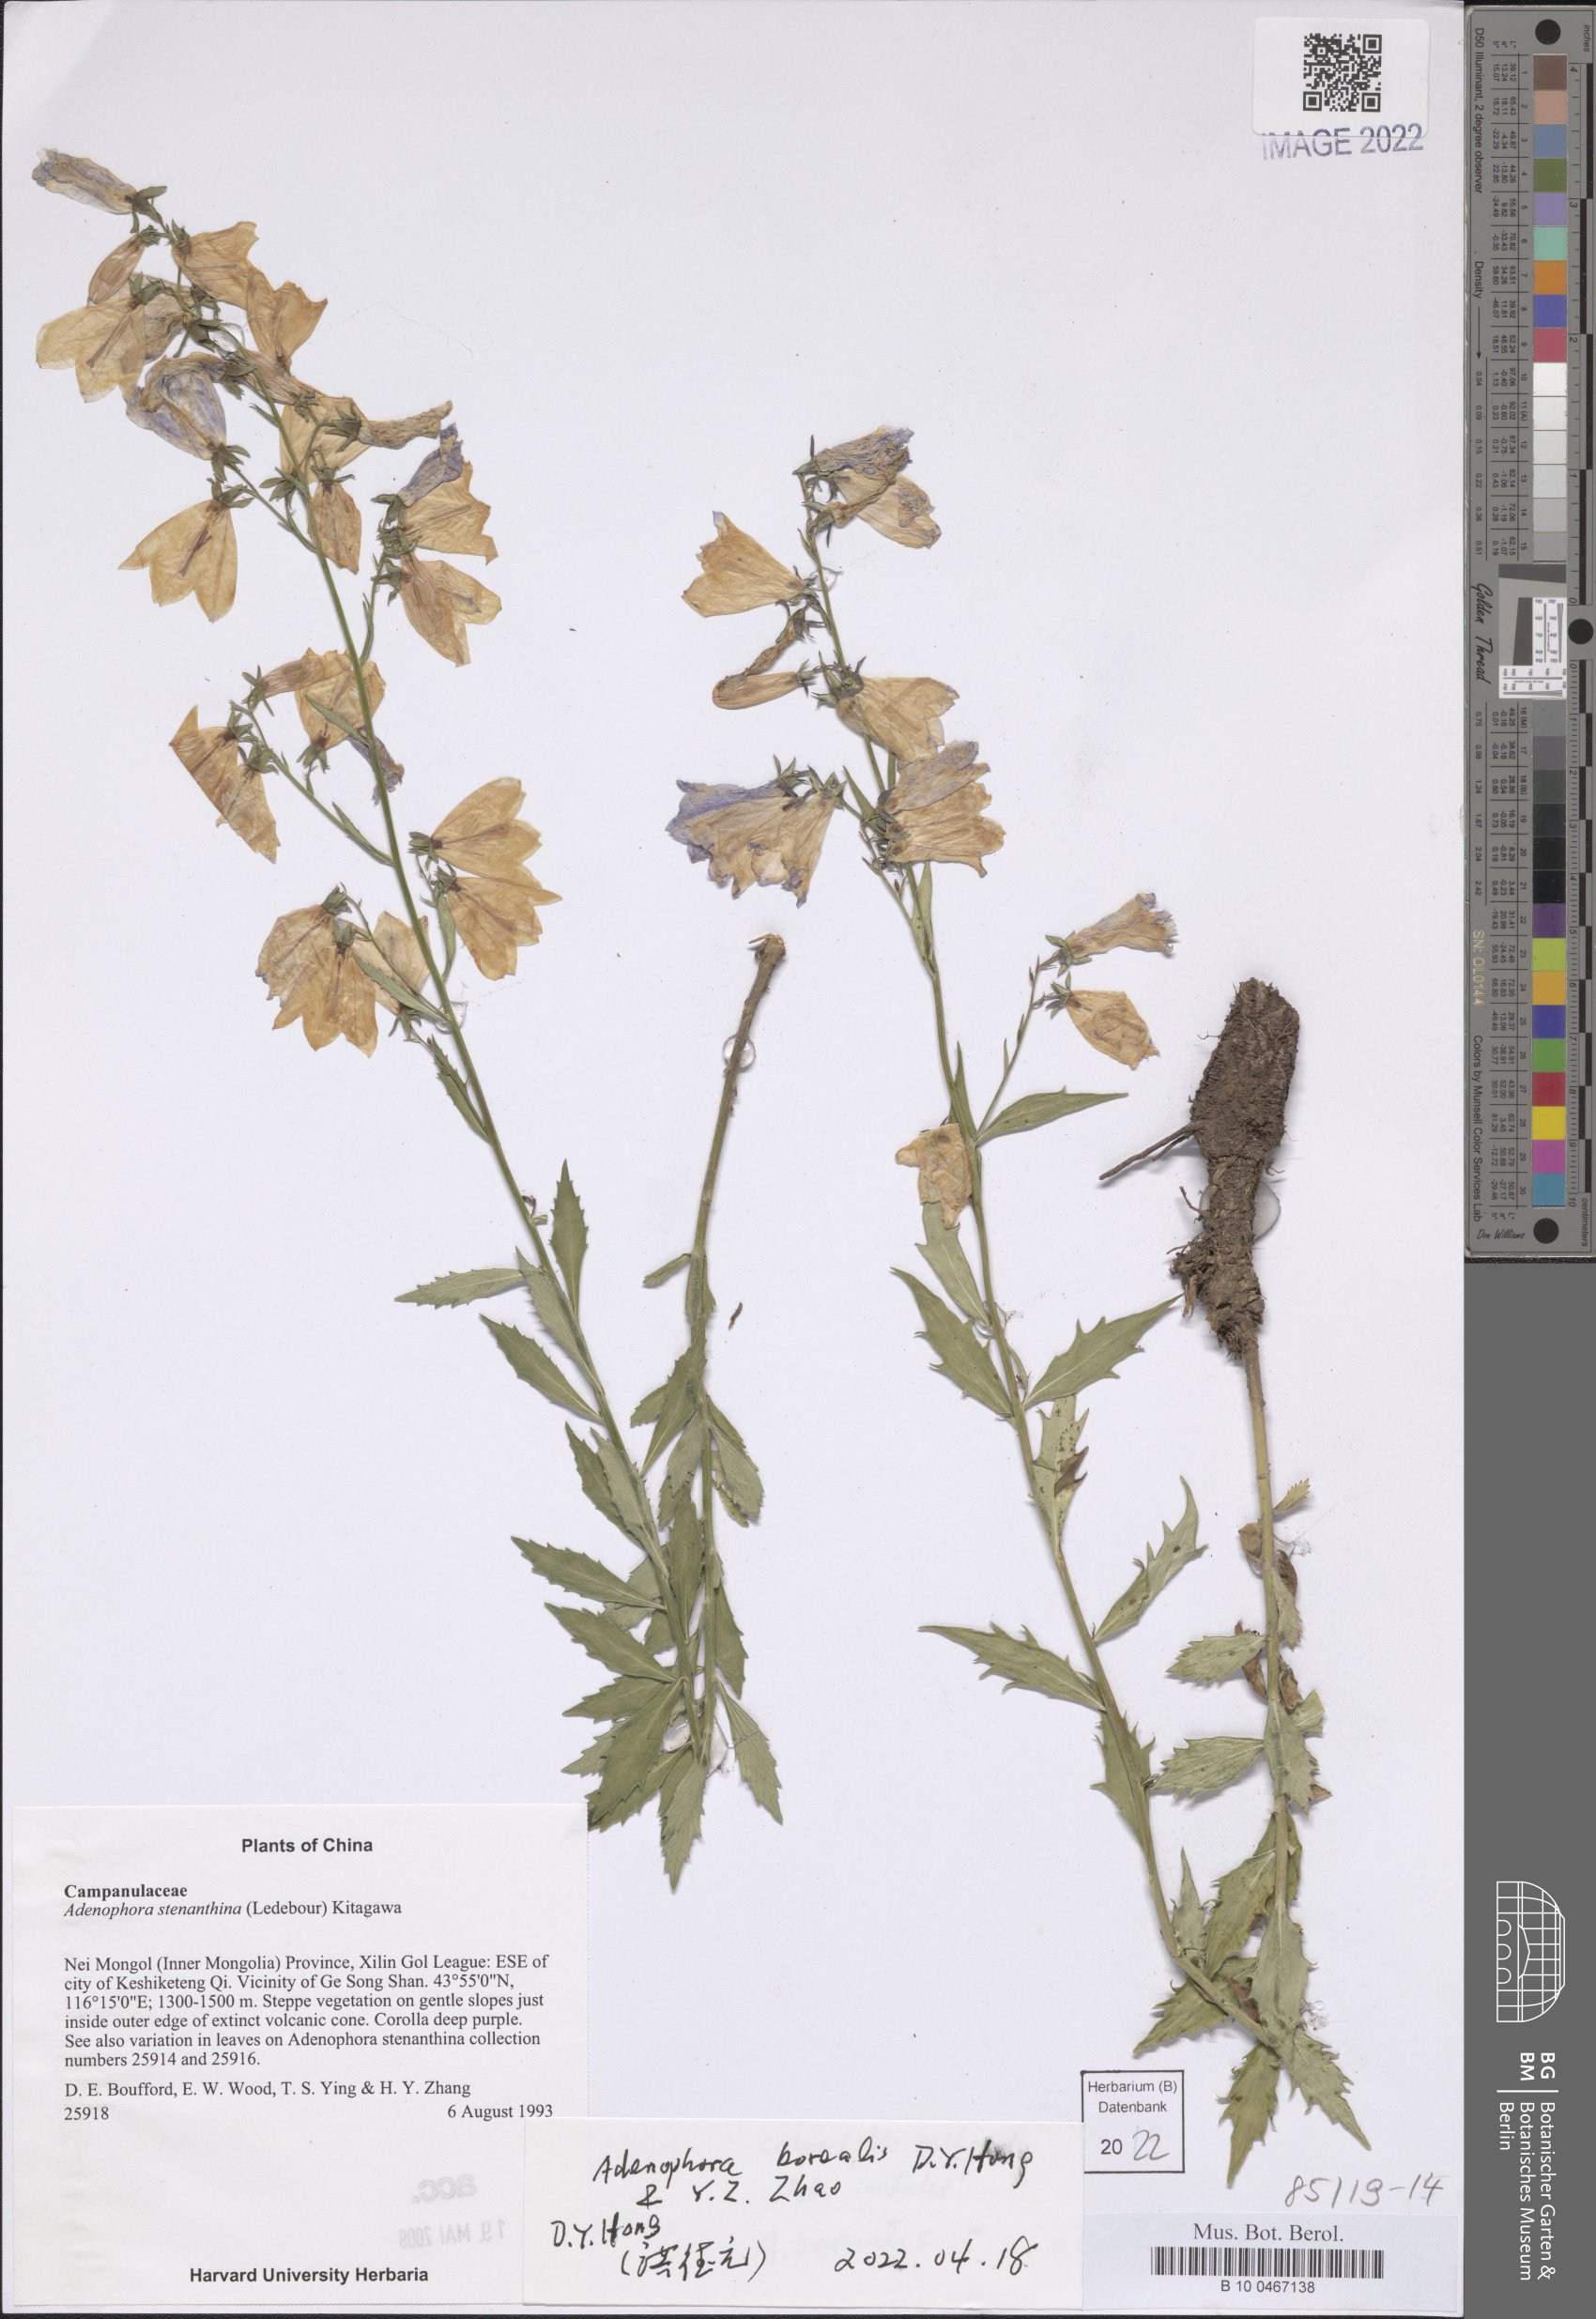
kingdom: Plantae
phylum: Tracheophyta
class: Magnoliopsida
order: Asterales
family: Campanulaceae
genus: Adenophora
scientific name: Adenophora borealis
